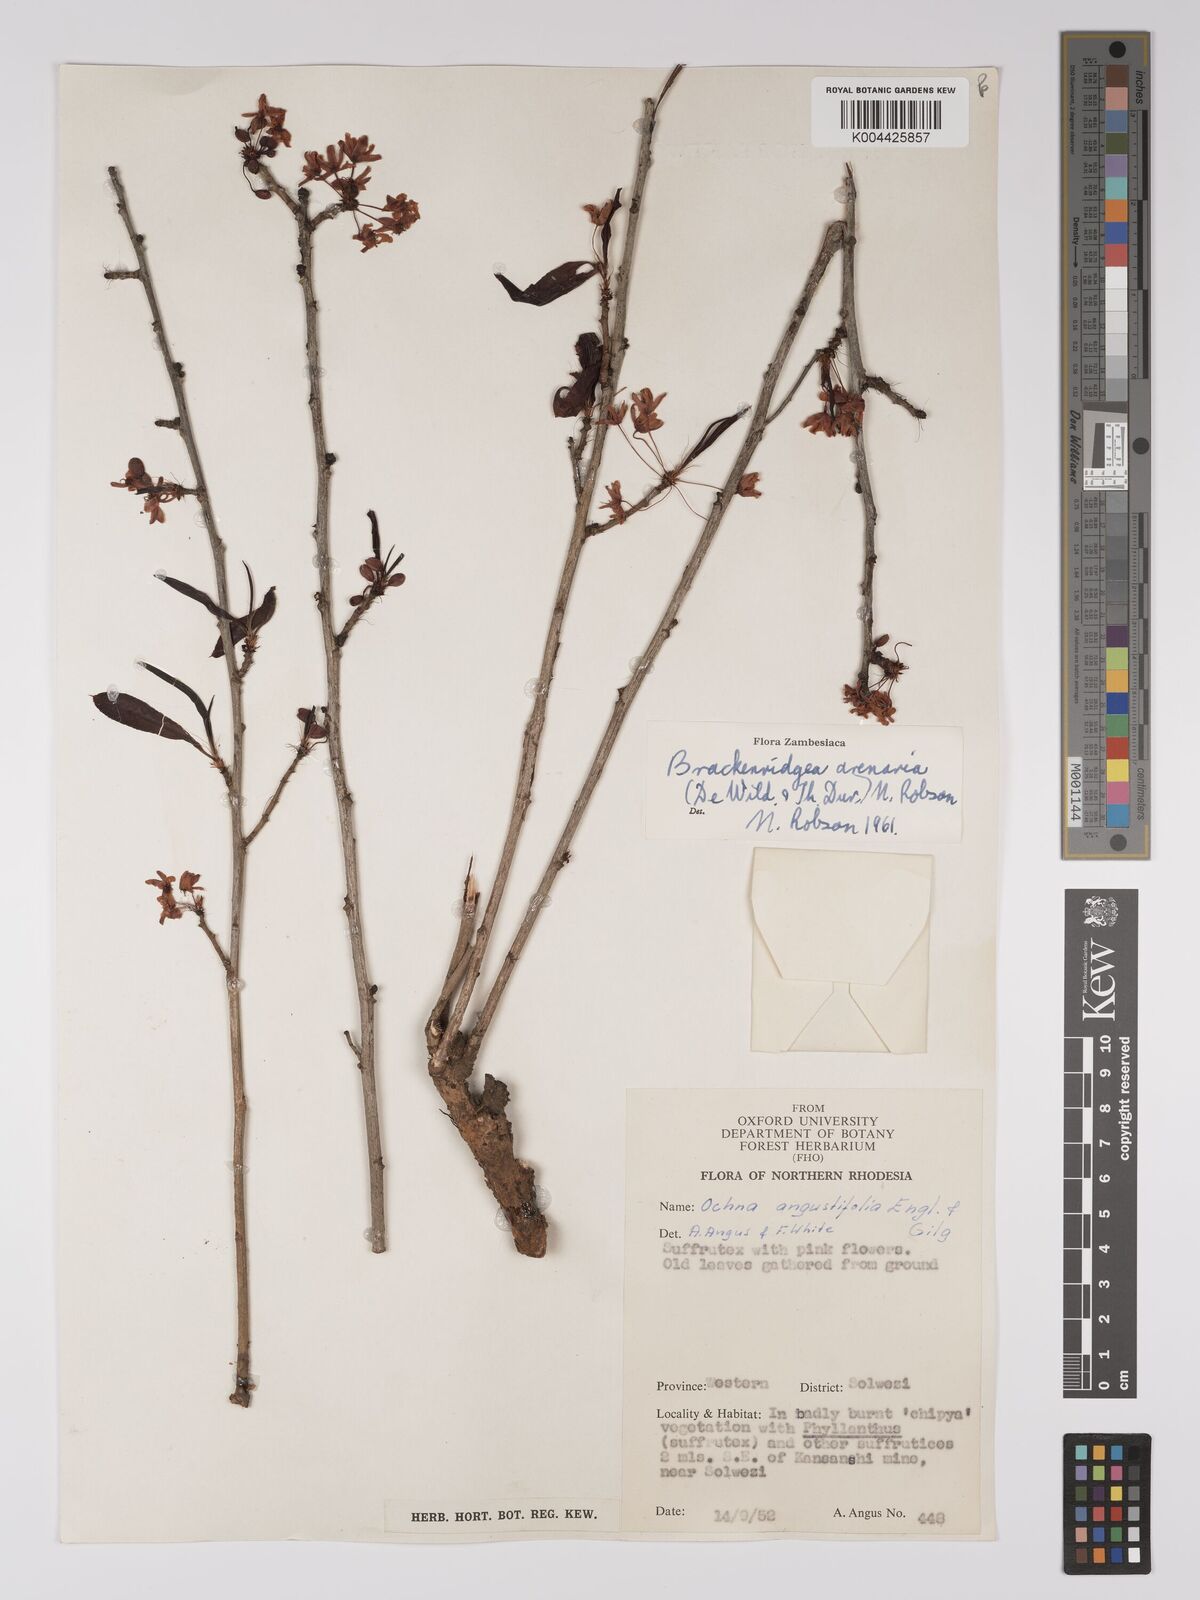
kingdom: Plantae
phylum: Tracheophyta
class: Magnoliopsida
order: Malpighiales
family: Ochnaceae
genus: Ochna
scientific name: Ochna arenaria
